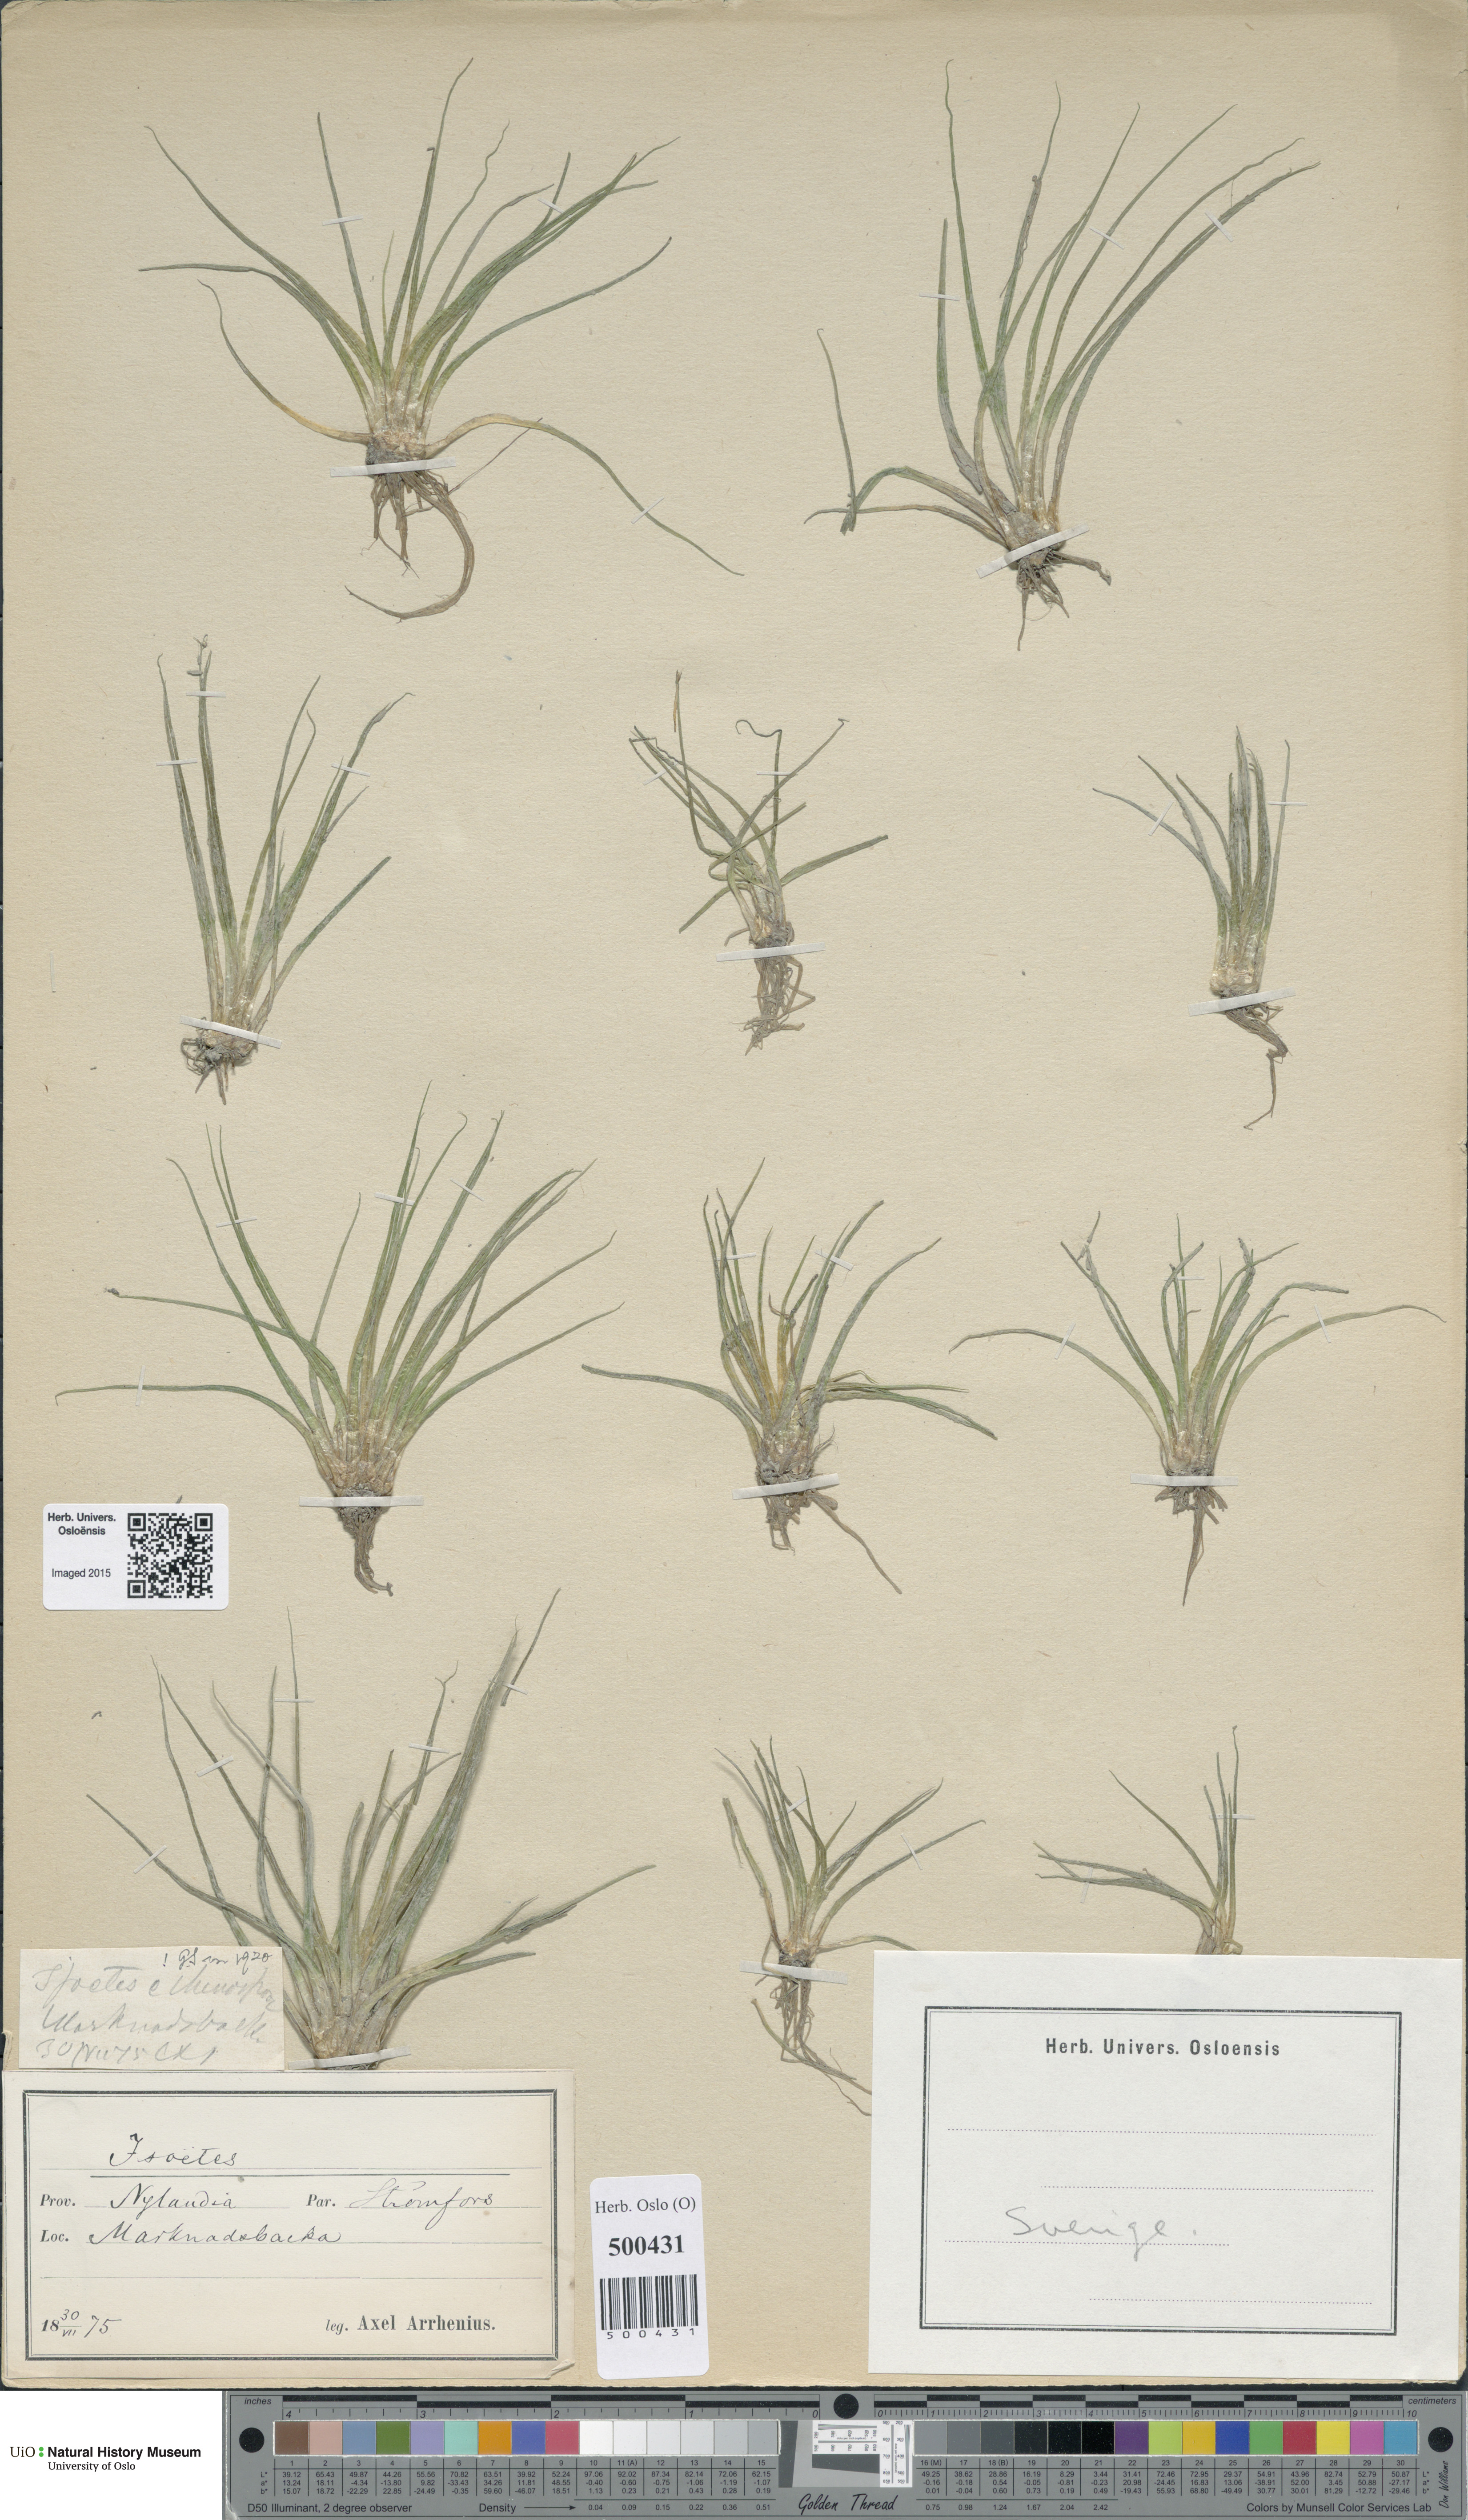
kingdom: Plantae
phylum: Tracheophyta
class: Lycopodiopsida
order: Isoetales
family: Isoetaceae
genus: Isoetes
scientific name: Isoetes echinospora
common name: Spring quillwort
